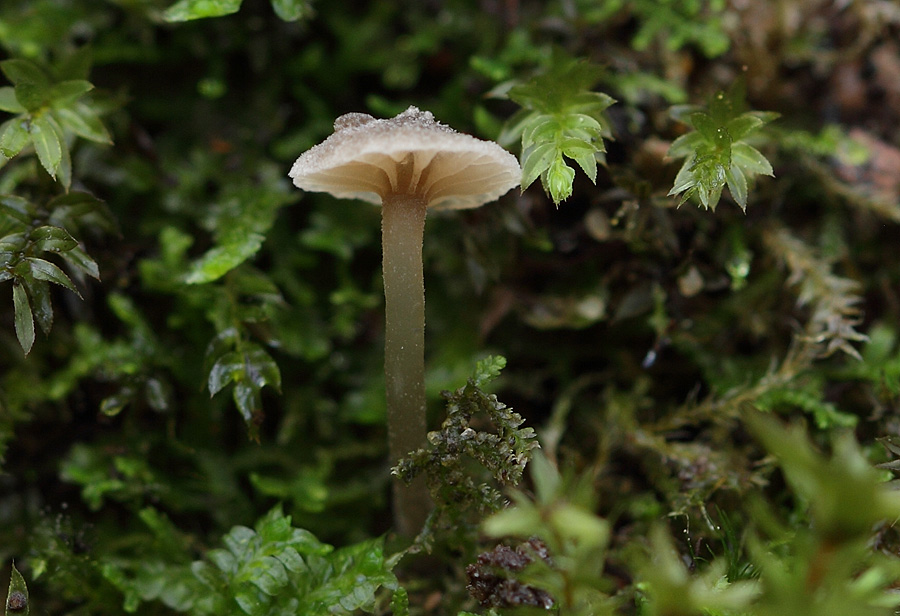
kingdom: Fungi
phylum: Basidiomycota
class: Agaricomycetes
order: Agaricales
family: Entolomataceae
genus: Entoloma
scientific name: Entoloma rhodocylix
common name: fjernbladet rødblad
